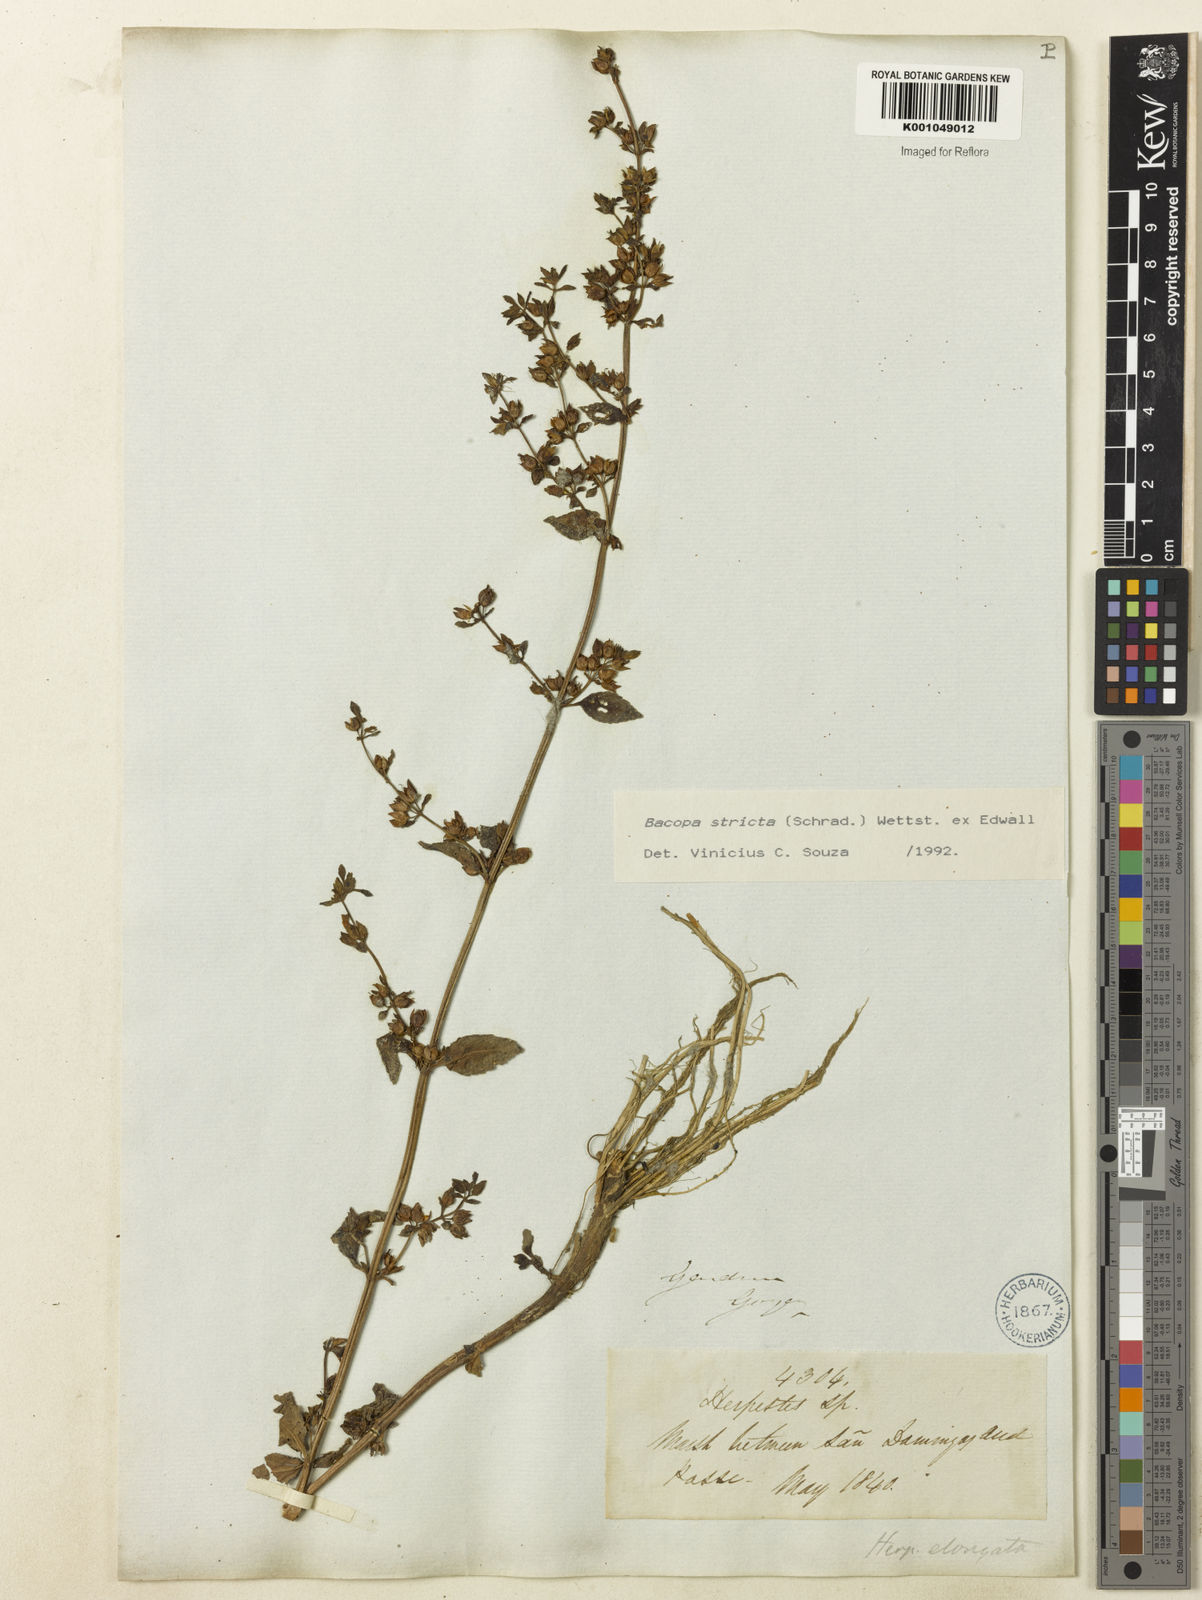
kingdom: Plantae
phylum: Tracheophyta
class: Magnoliopsida
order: Lamiales
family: Plantaginaceae
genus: Bacopa
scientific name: Bacopa stricta
